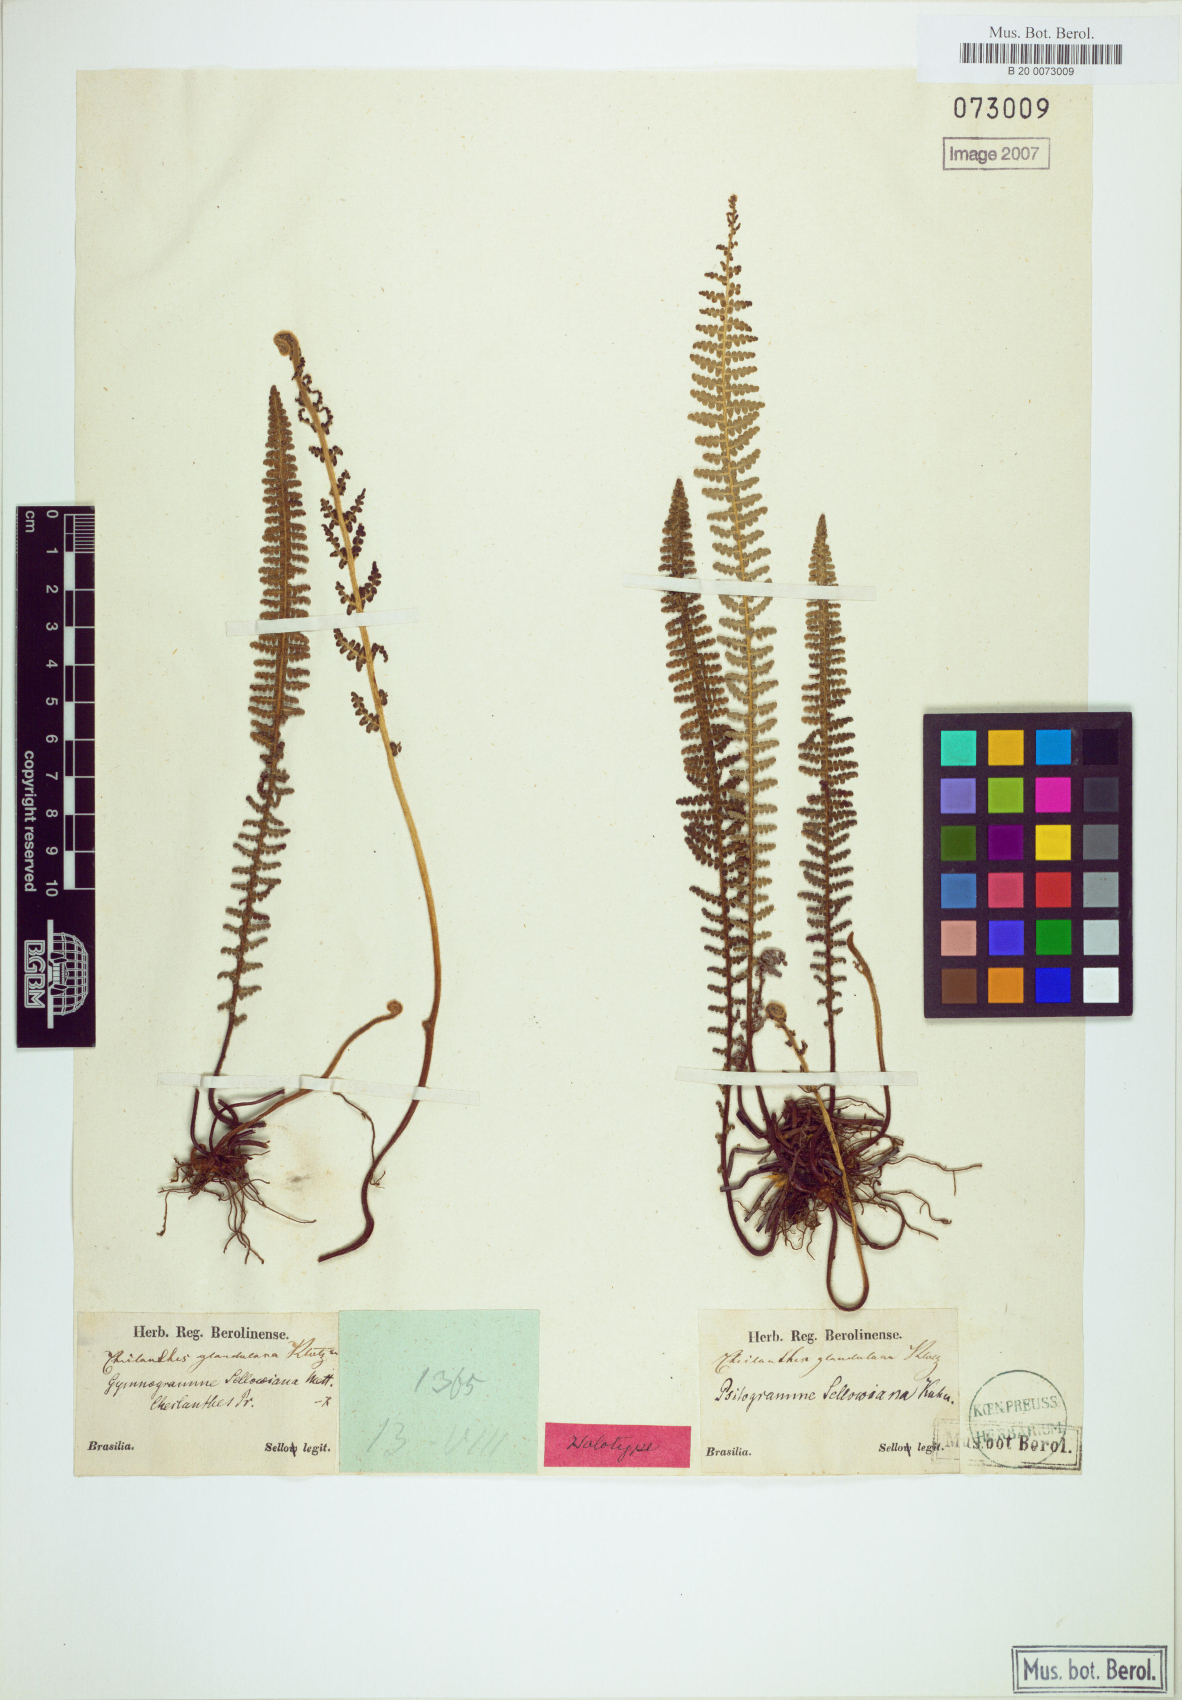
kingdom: Plantae
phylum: Tracheophyta
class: Polypodiopsida
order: Polypodiales
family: Pteridaceae
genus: Tryonia
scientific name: Tryonia sellowiana
